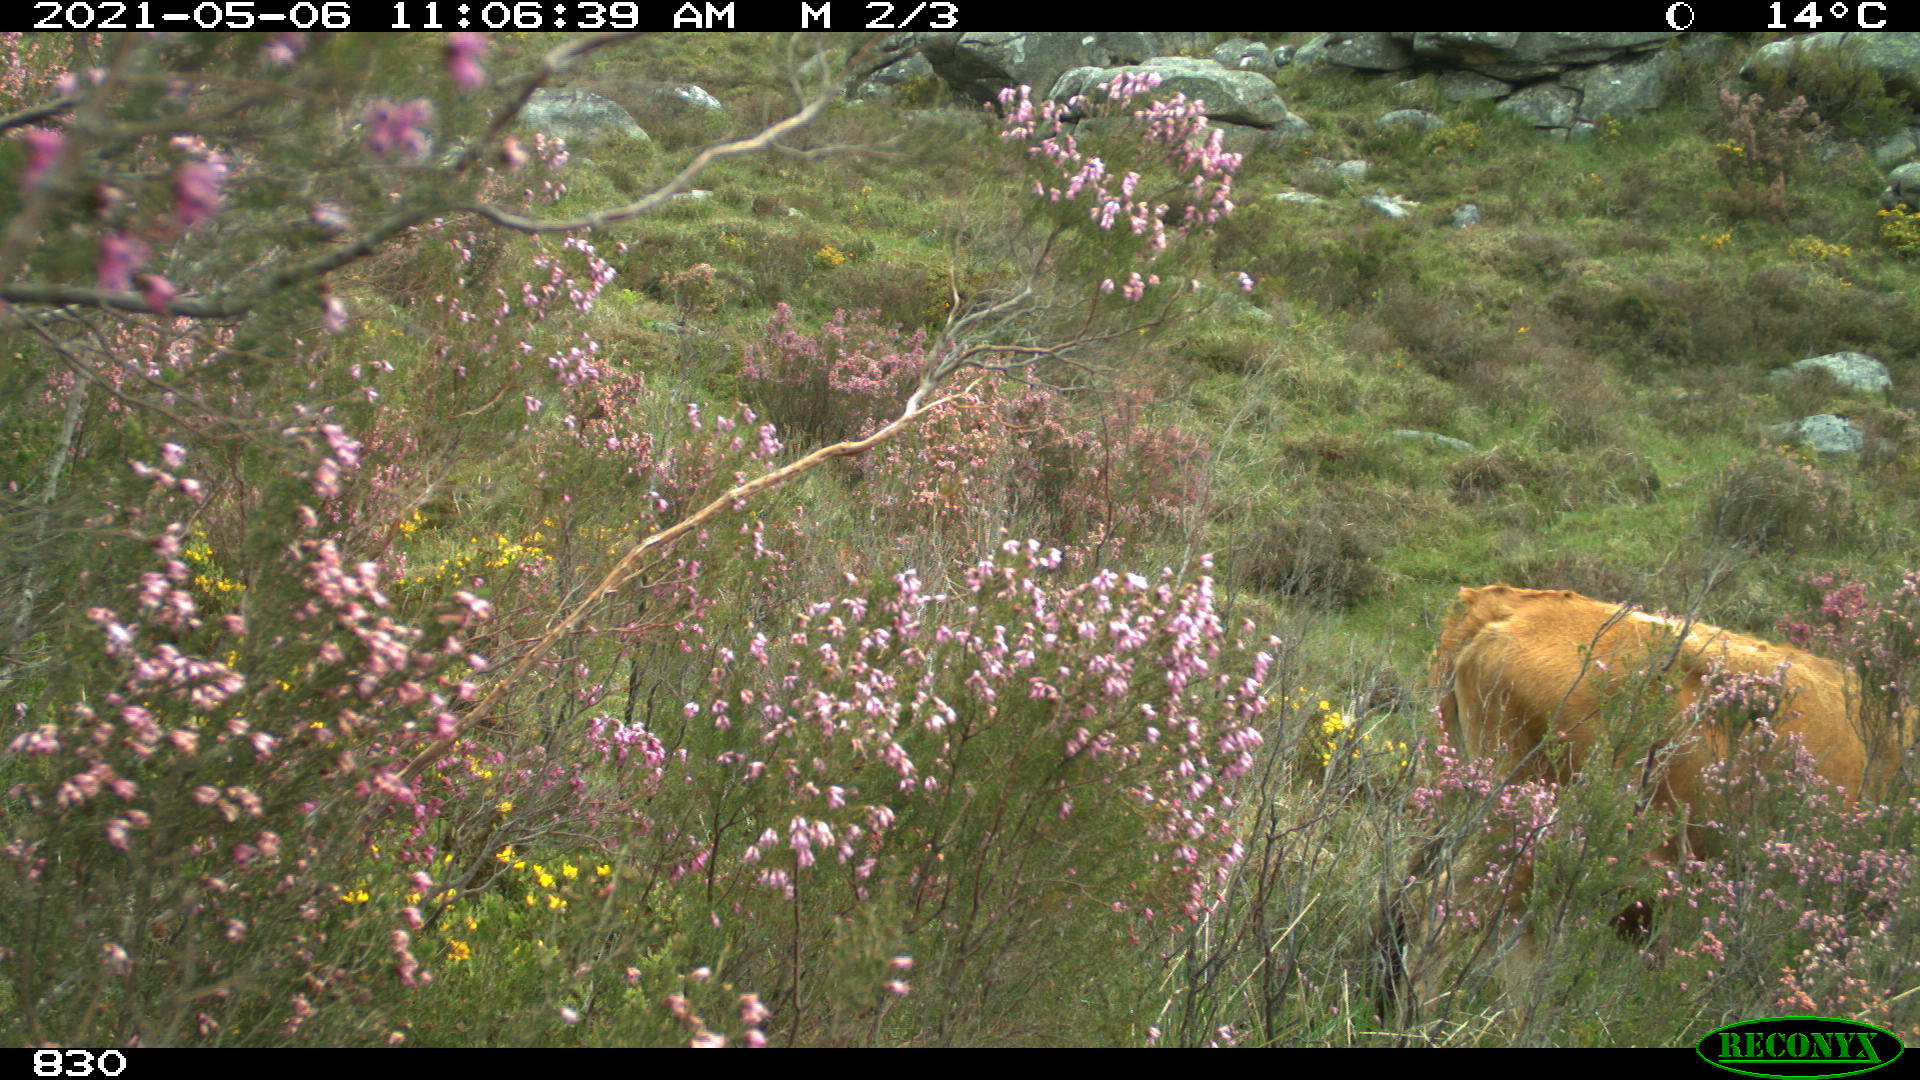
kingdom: Animalia
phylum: Chordata
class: Mammalia
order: Artiodactyla
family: Bovidae
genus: Bos
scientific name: Bos taurus
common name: Domesticated cattle
